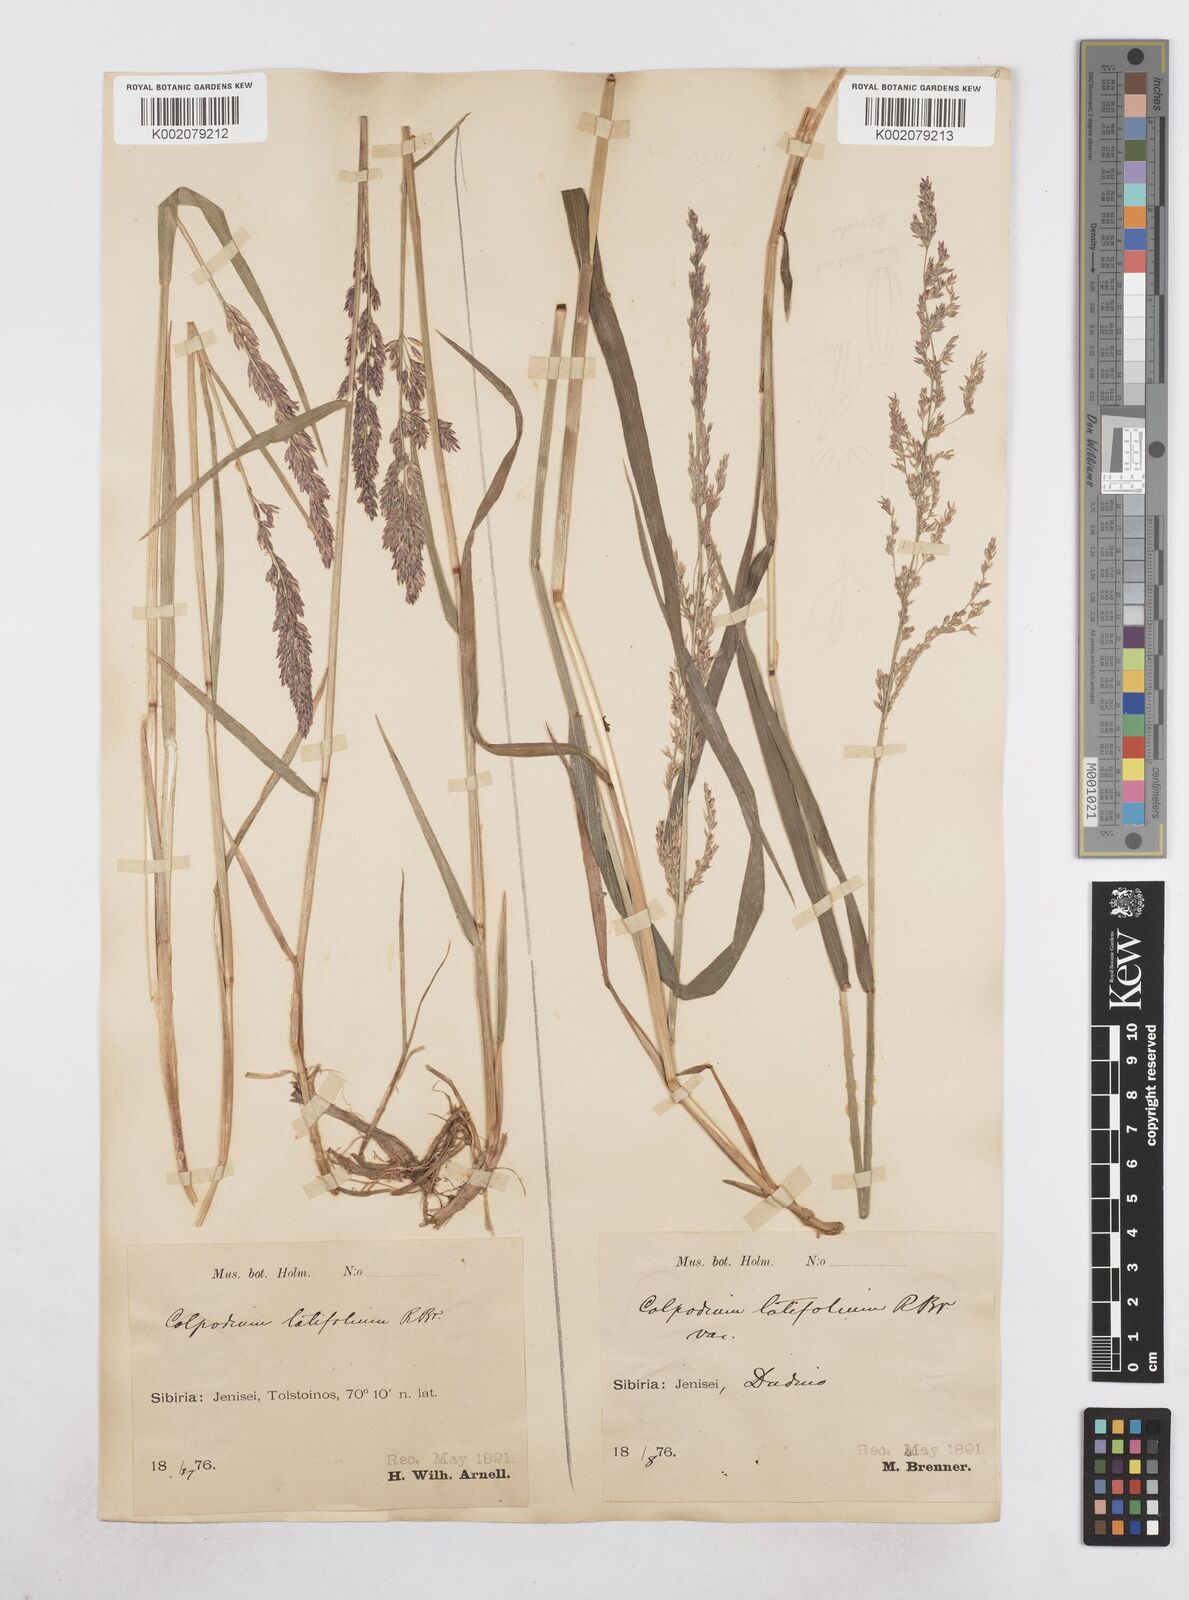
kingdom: Plantae
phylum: Tracheophyta
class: Liliopsida
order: Poales
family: Poaceae
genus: Arctagrostis
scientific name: Arctagrostis latifolia
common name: Arctic grass
